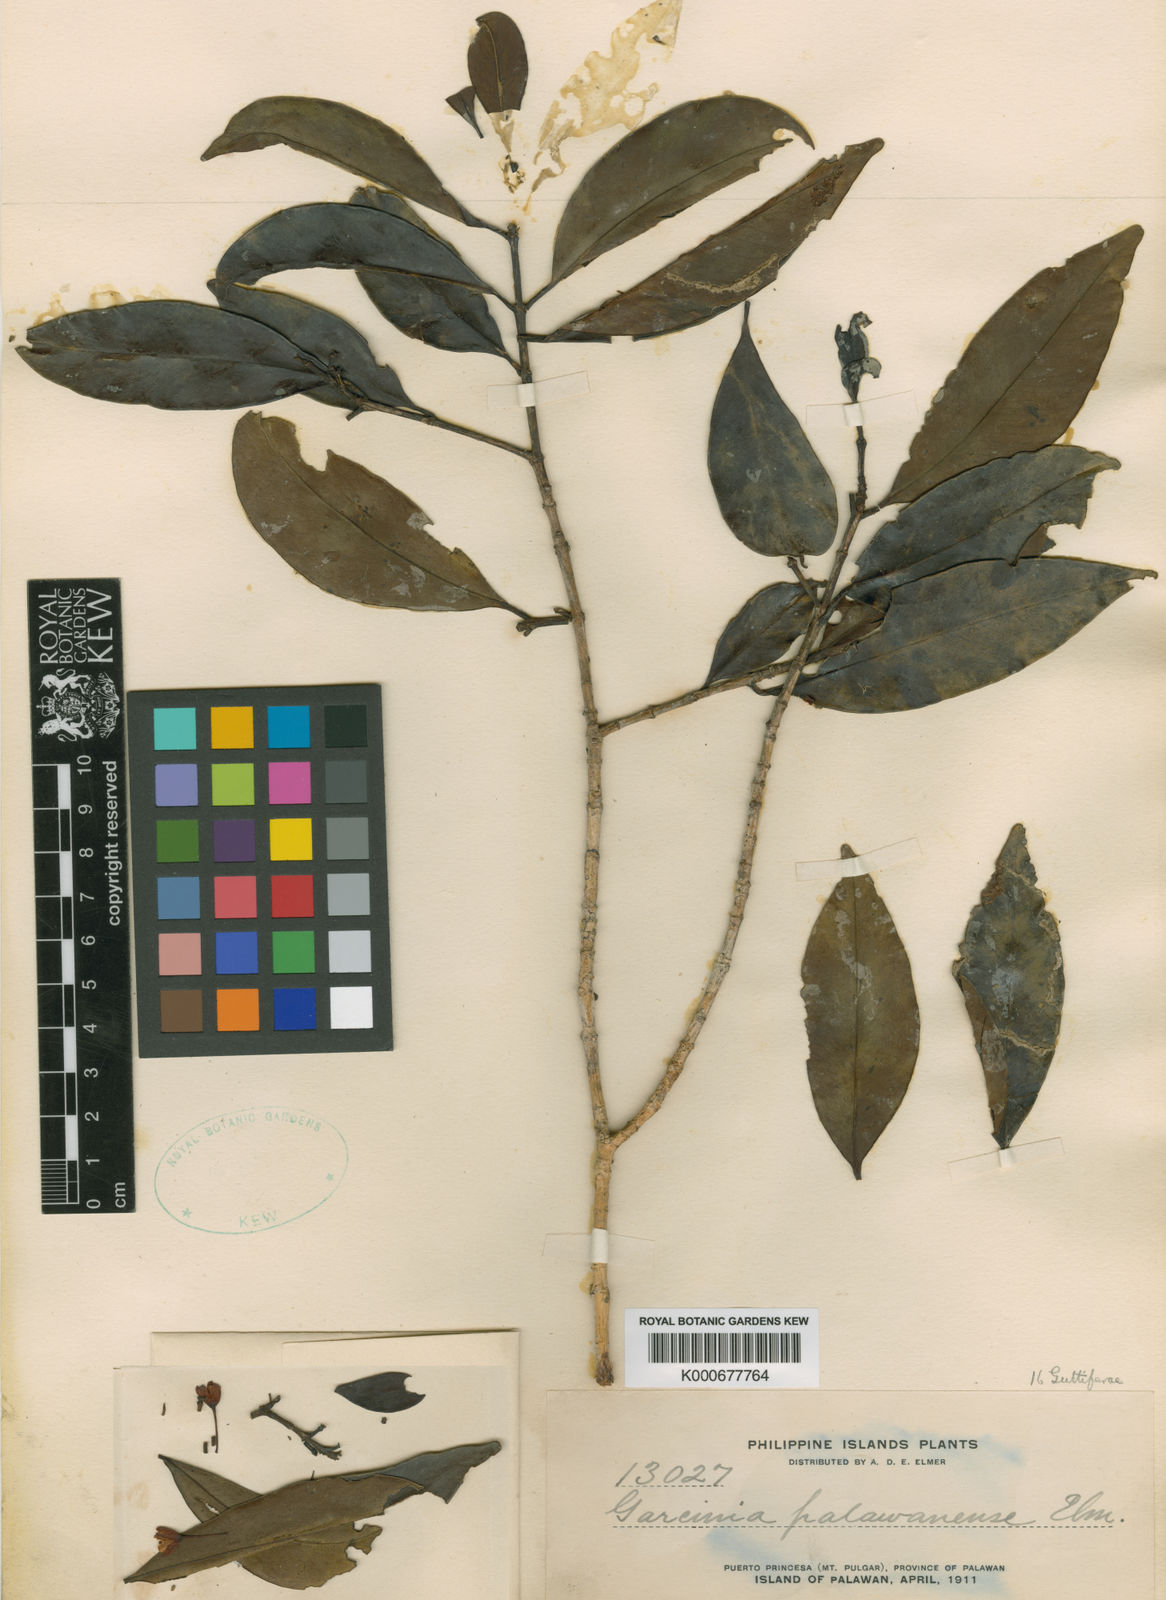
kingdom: Plantae
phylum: Tracheophyta
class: Magnoliopsida
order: Malpighiales
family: Clusiaceae
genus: Garcinia
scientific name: Garcinia dives
